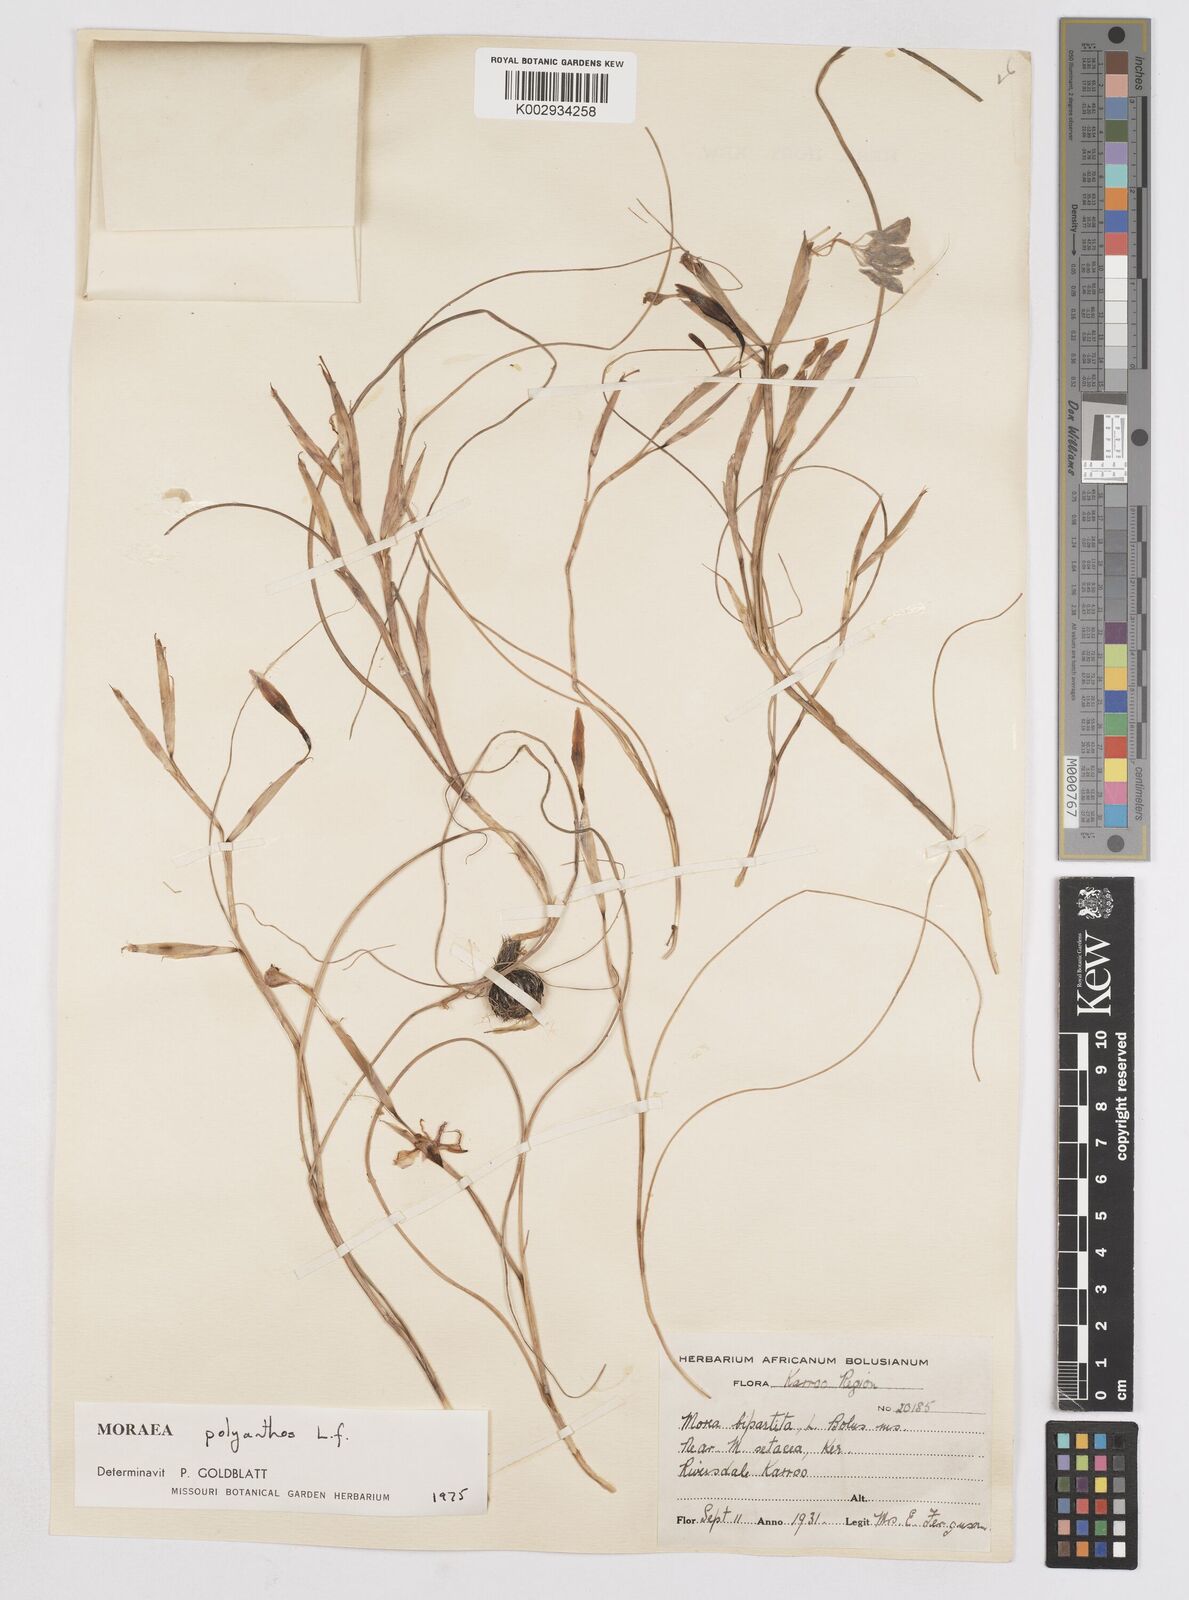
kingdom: Plantae
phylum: Tracheophyta
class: Liliopsida
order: Asparagales
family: Iridaceae
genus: Moraea
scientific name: Moraea bipartita
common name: Blue tulp
